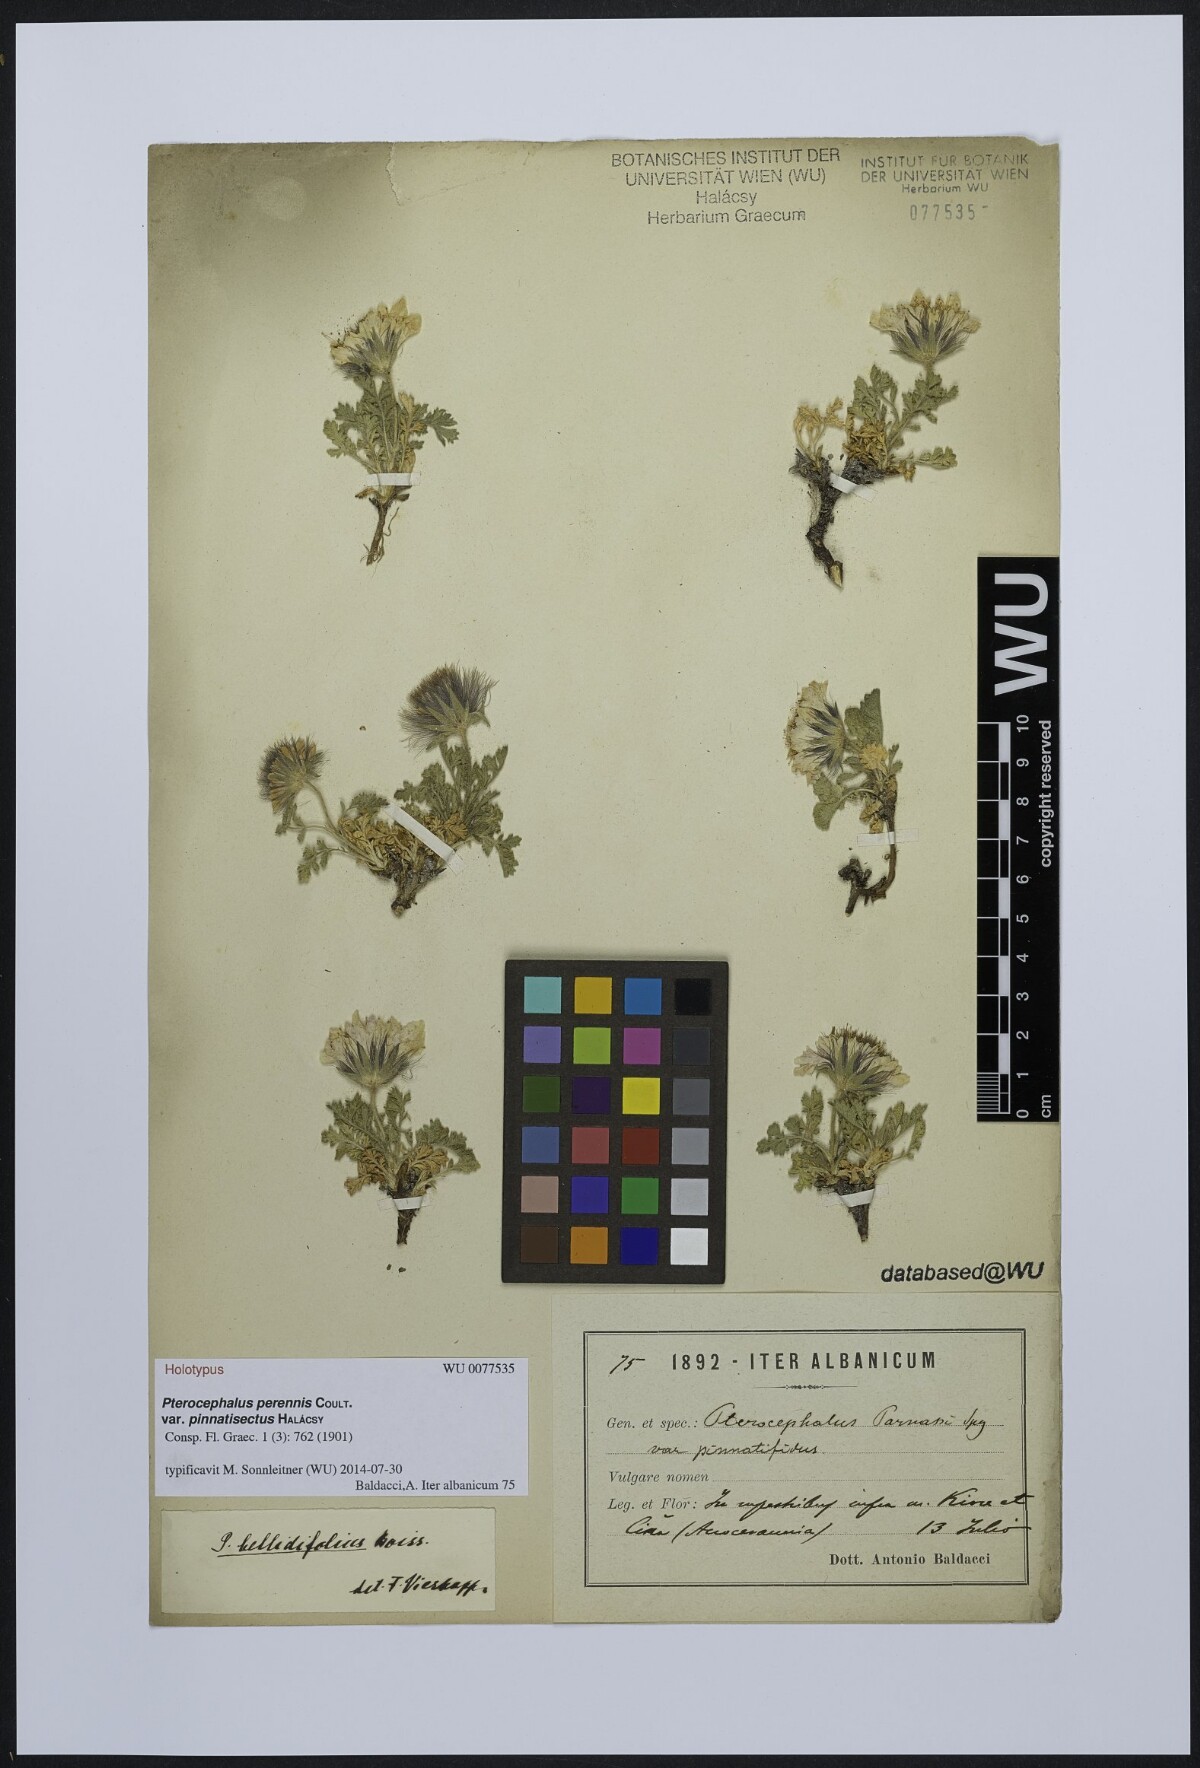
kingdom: Plantae
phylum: Tracheophyta
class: Magnoliopsida
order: Dipsacales
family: Caprifoliaceae
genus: Pterocephalus
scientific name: Pterocephalus perennis
